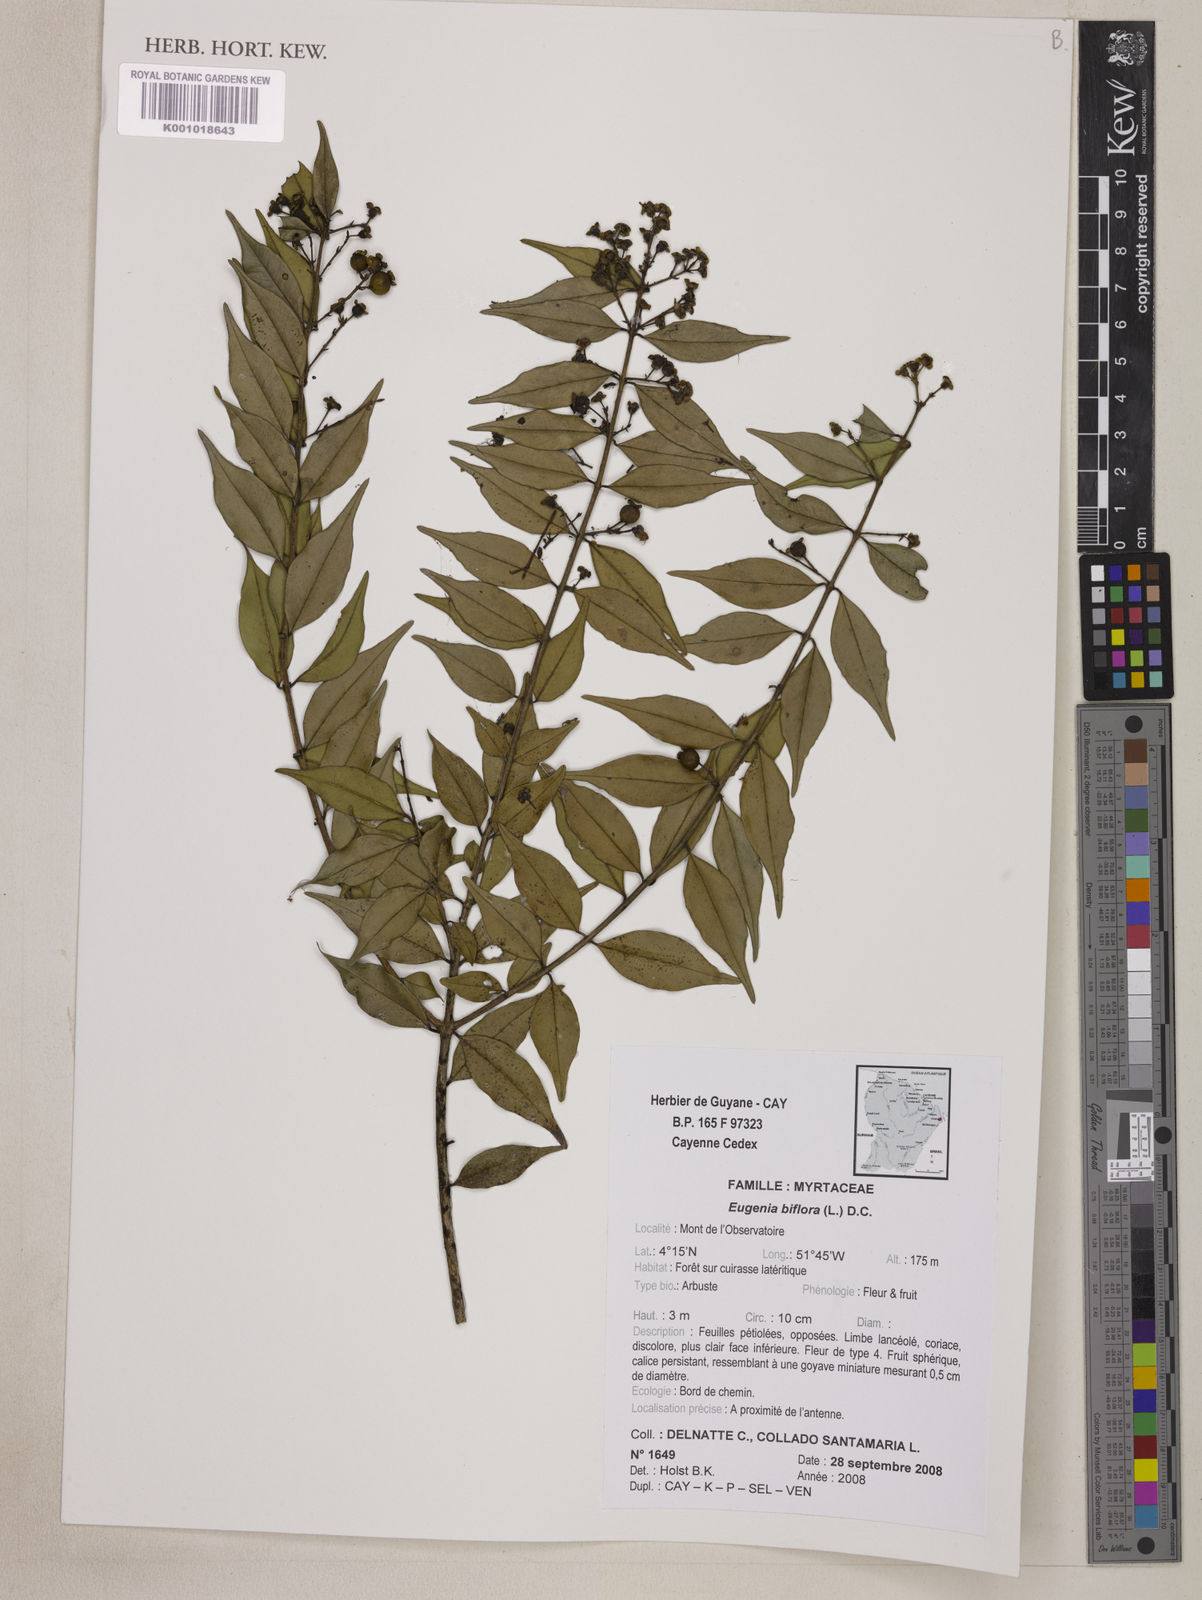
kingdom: Plantae
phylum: Tracheophyta
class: Magnoliopsida
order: Myrtales
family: Myrtaceae
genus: Eugenia
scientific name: Eugenia biflora
